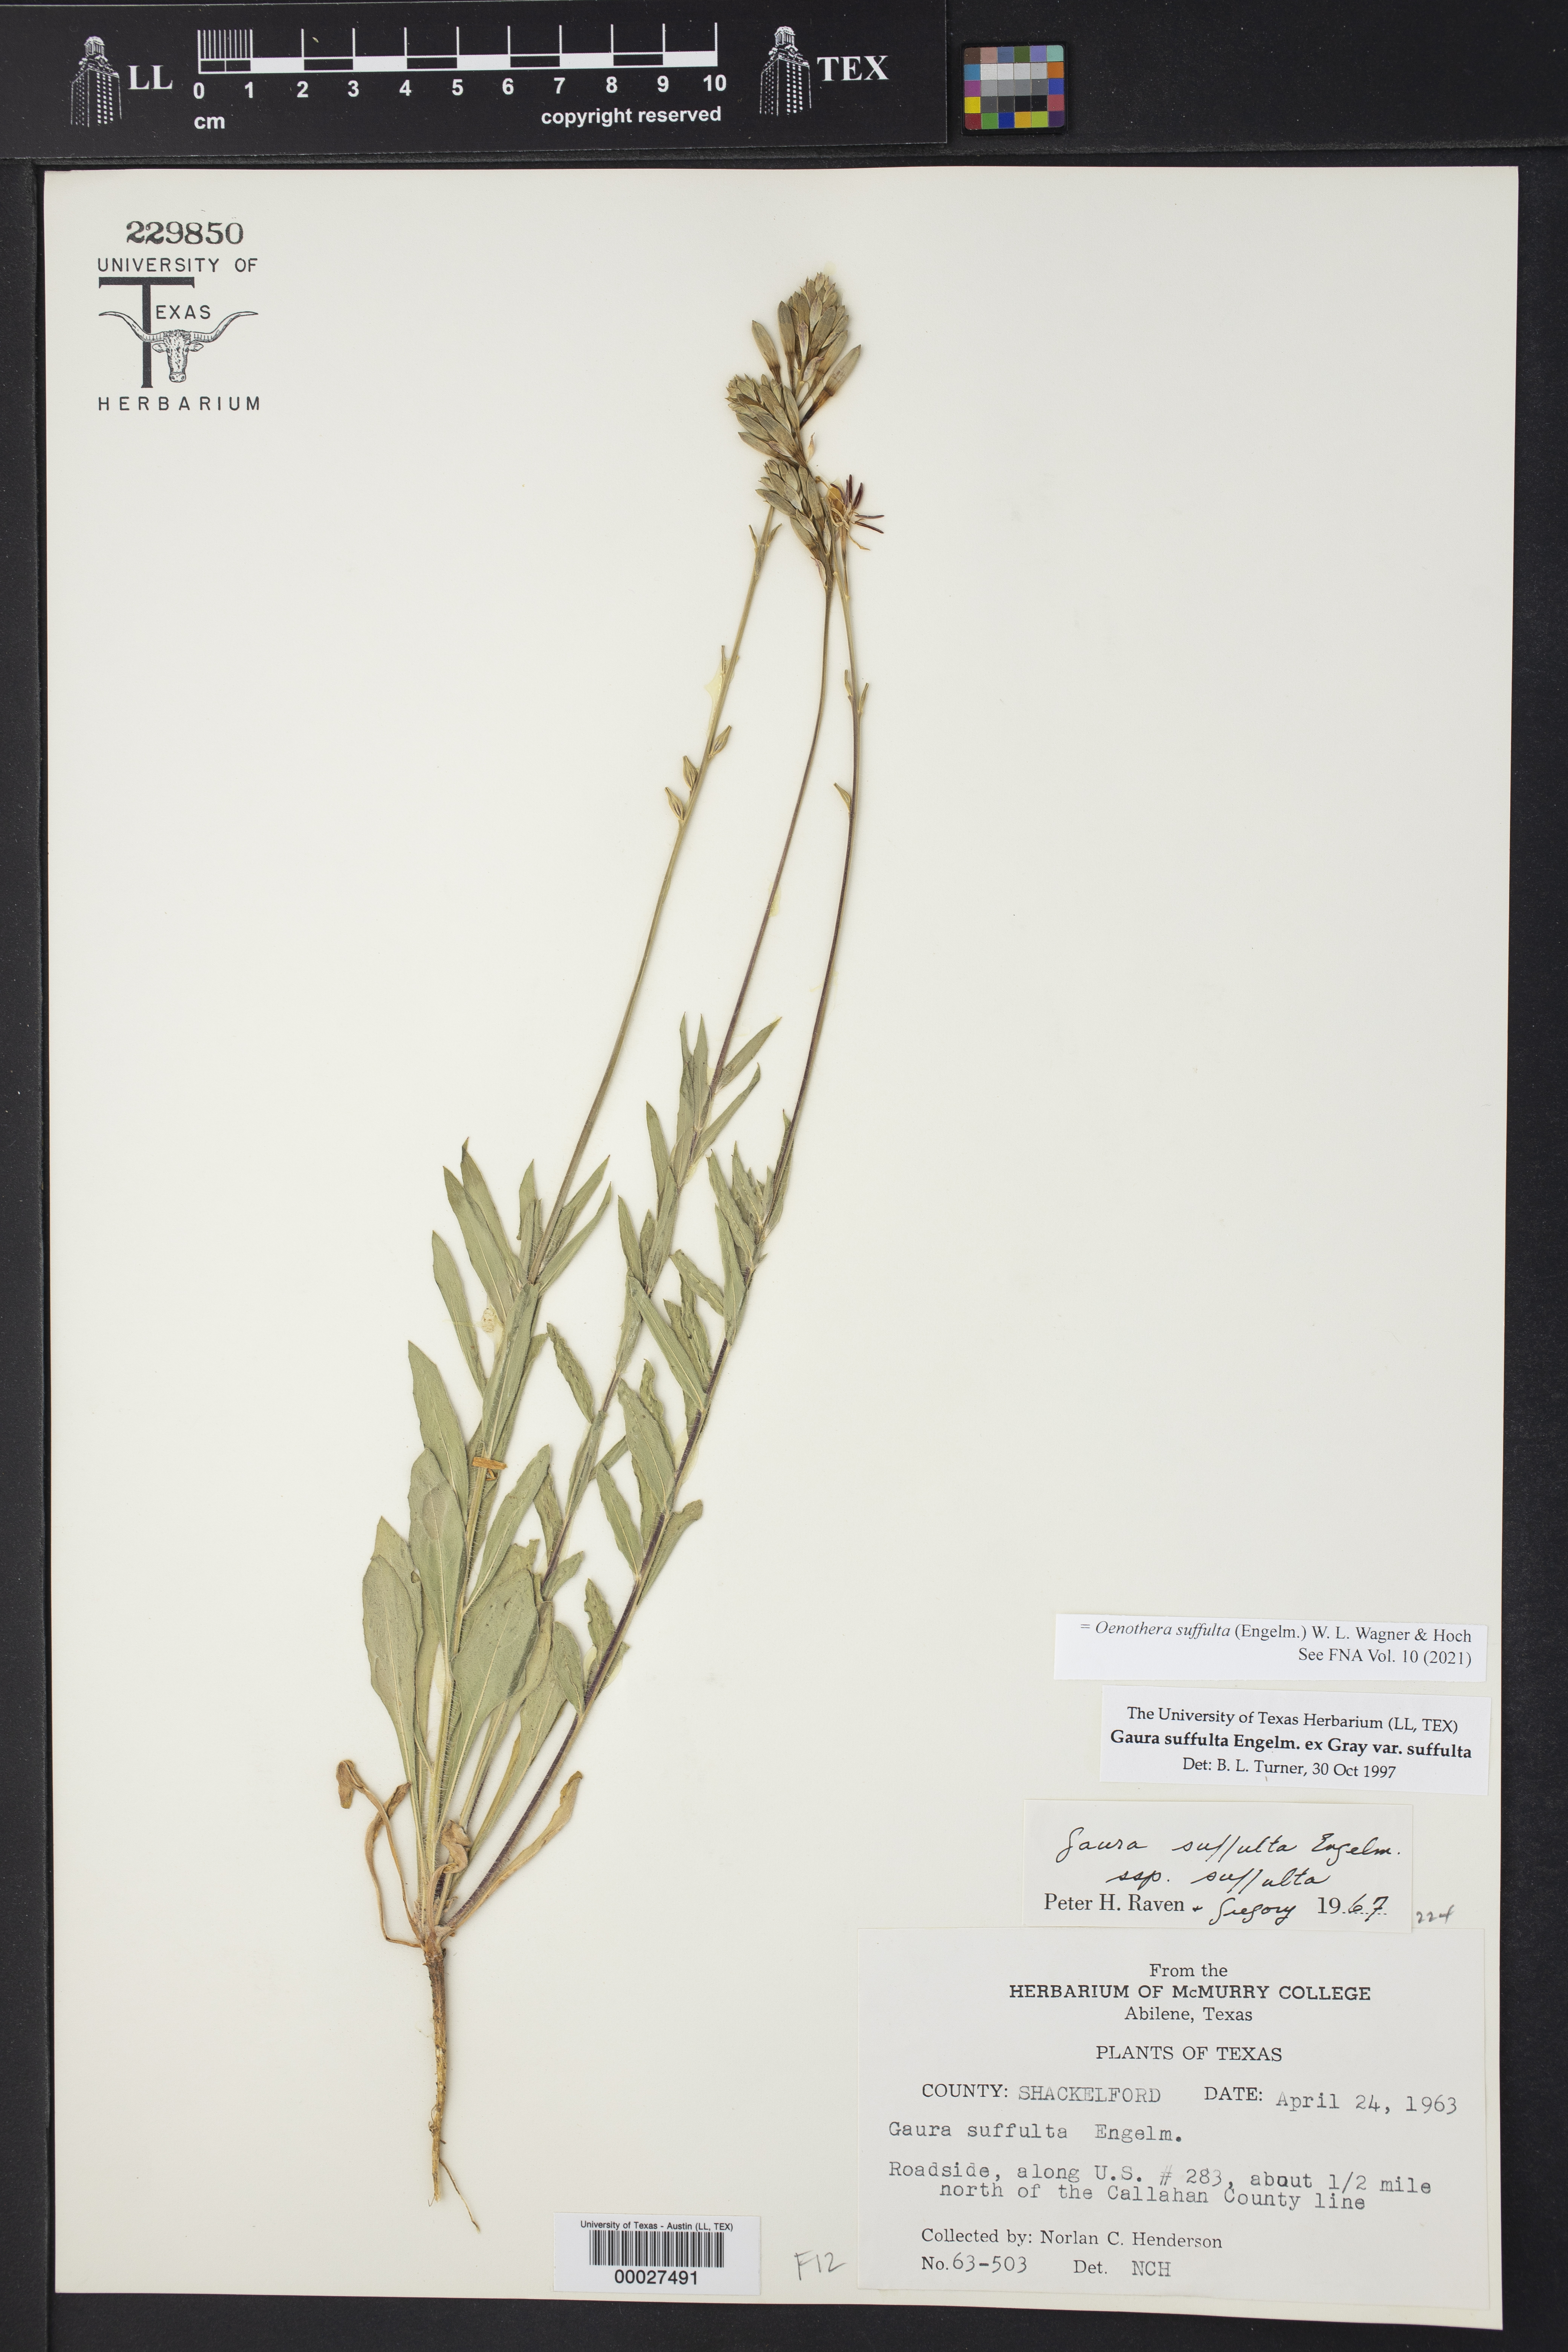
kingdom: Plantae
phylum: Tracheophyta
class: Magnoliopsida
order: Myrtales
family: Onagraceae
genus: Oenothera
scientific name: Oenothera suffulta
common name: Kisses
